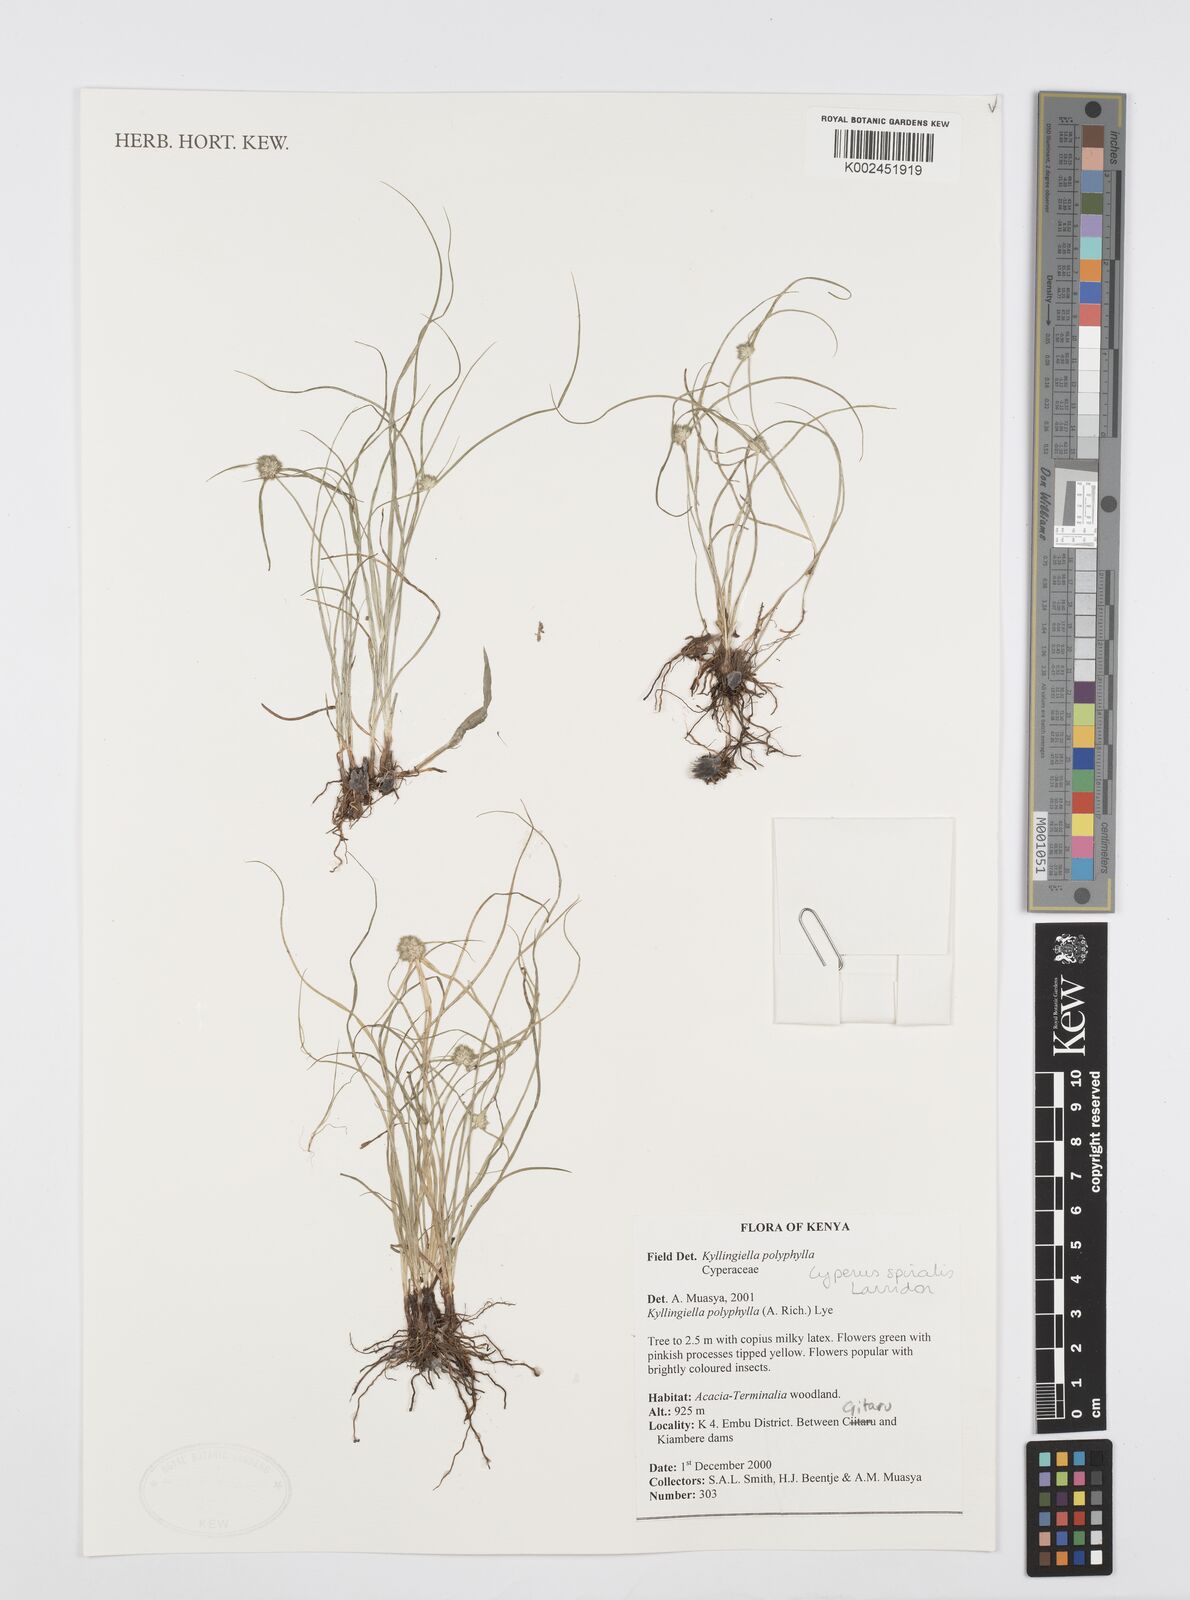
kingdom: Plantae
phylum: Tracheophyta
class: Liliopsida
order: Poales
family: Cyperaceae
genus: Cyperus
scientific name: Cyperus bulbosus
